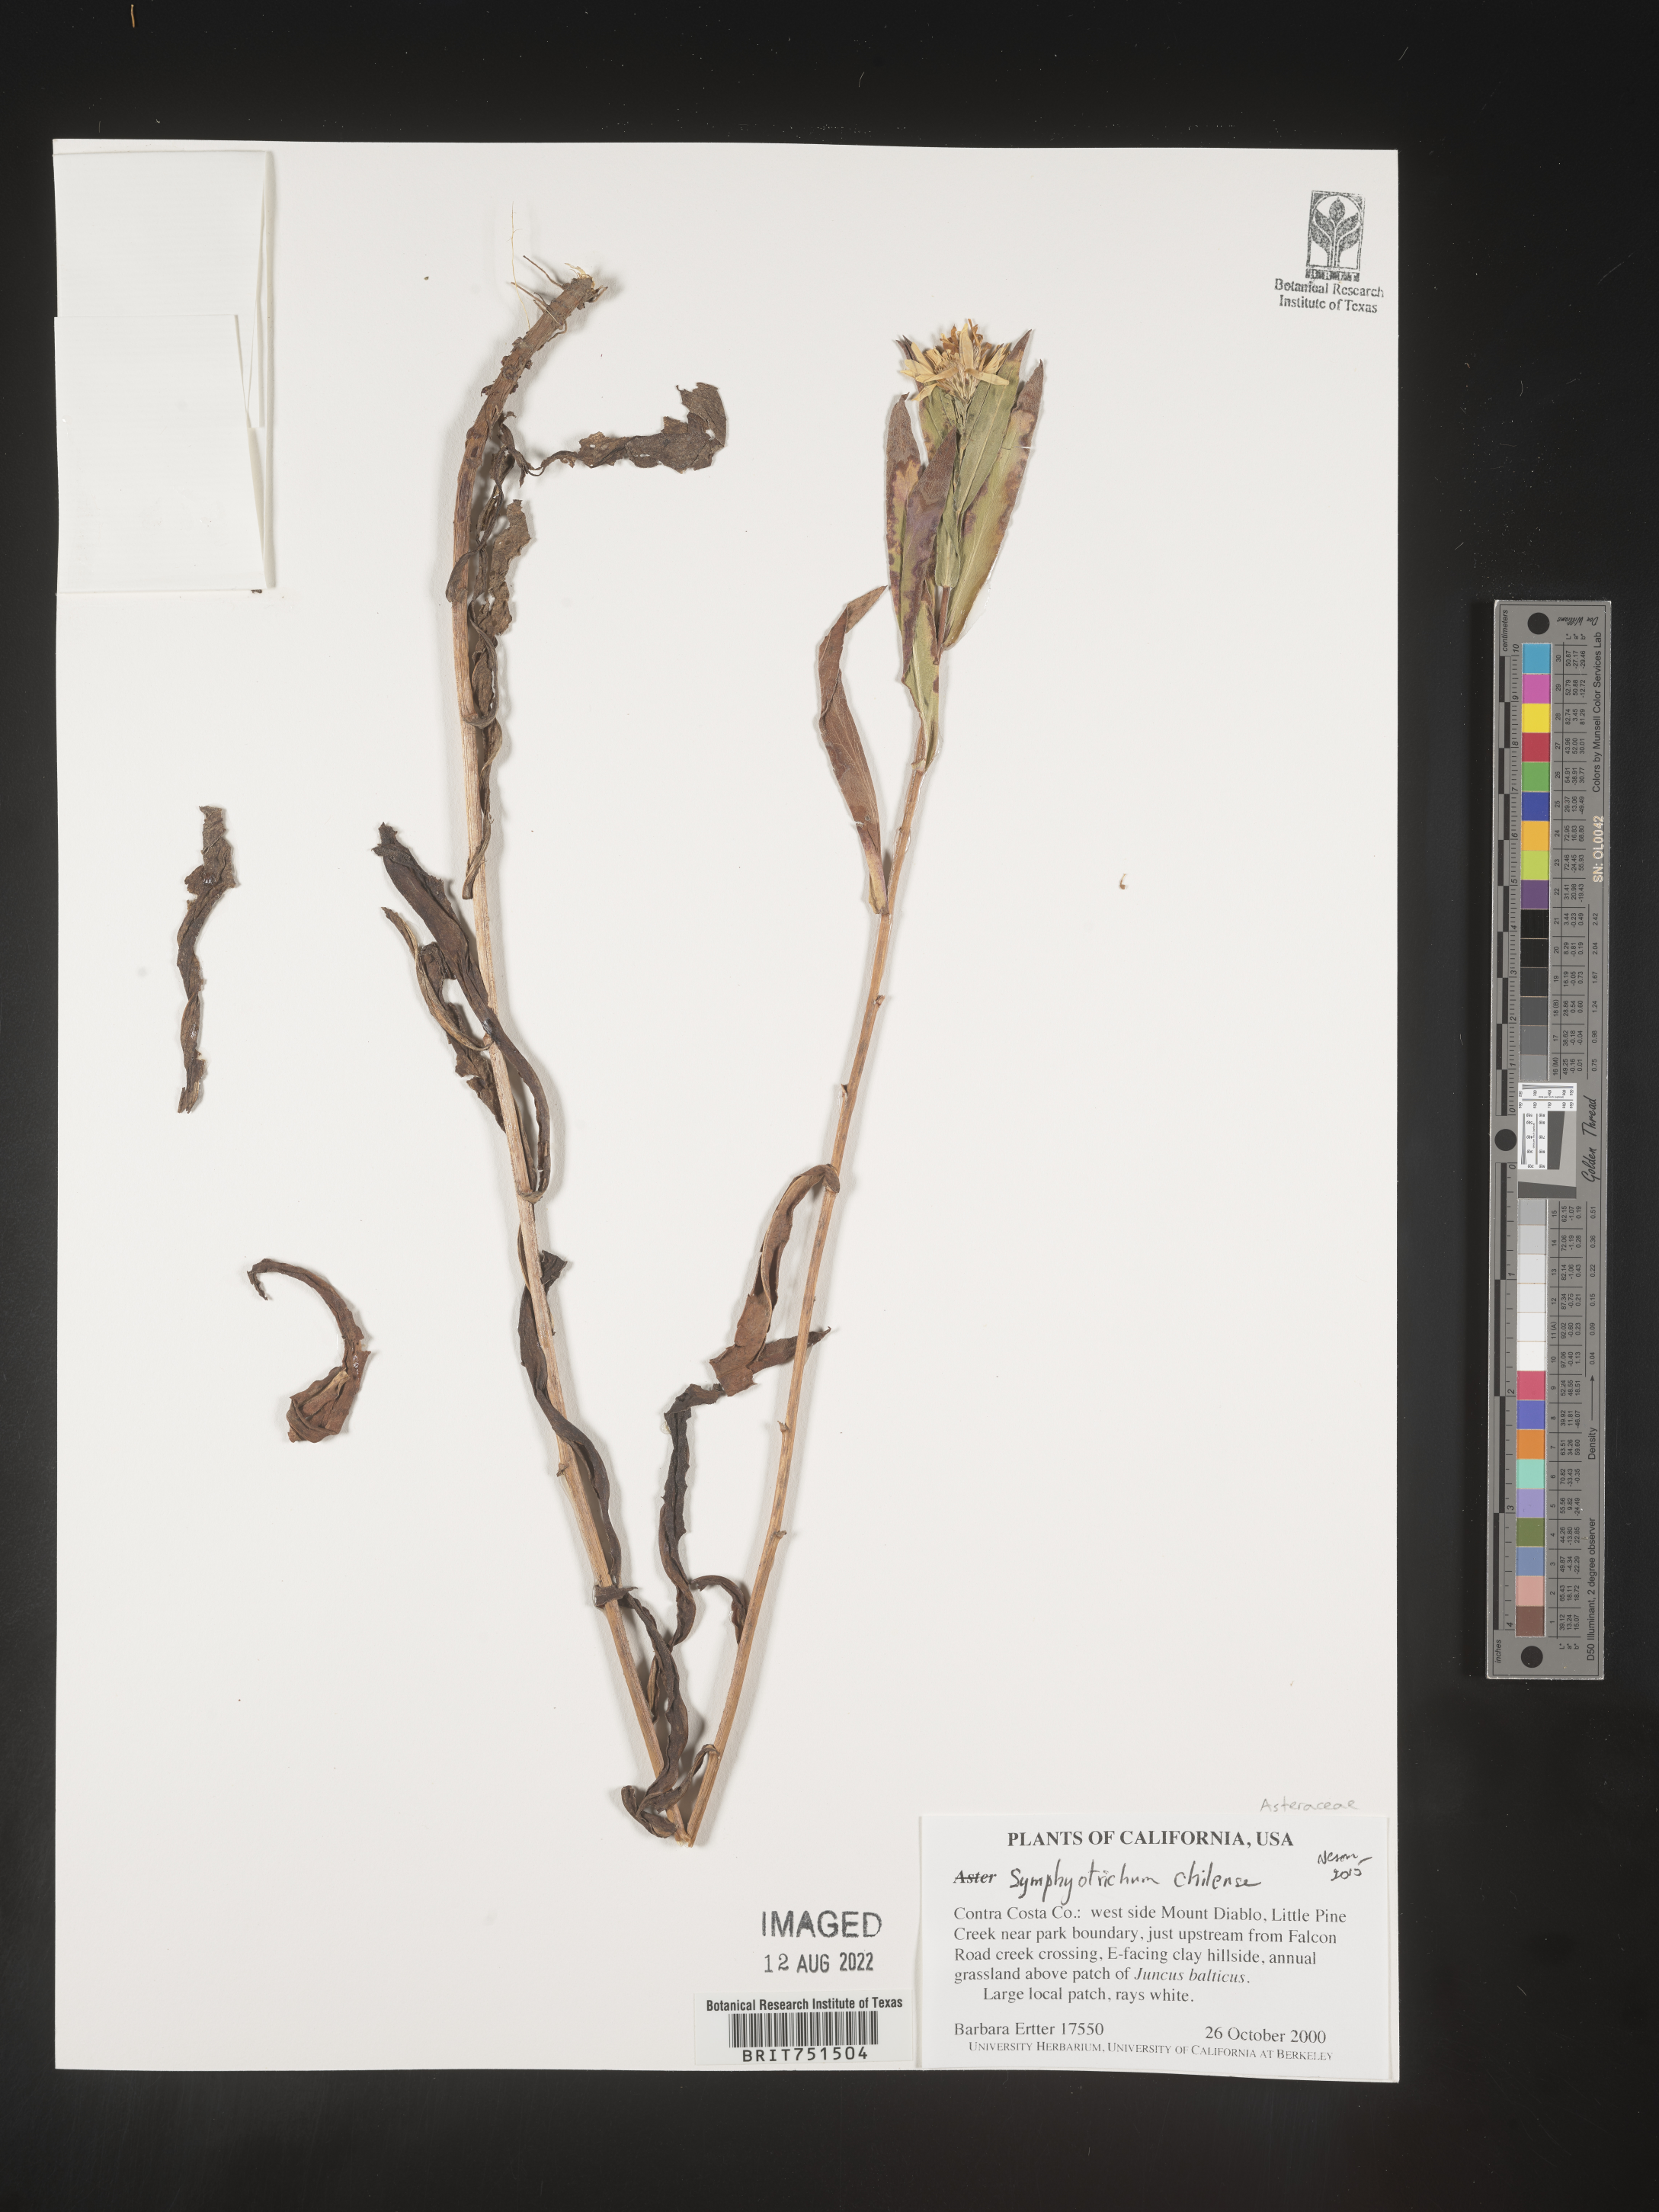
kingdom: Plantae
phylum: Tracheophyta
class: Magnoliopsida
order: Asterales
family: Asteraceae
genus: Symphyotrichum
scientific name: Symphyotrichum chilense
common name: Pacific aster
